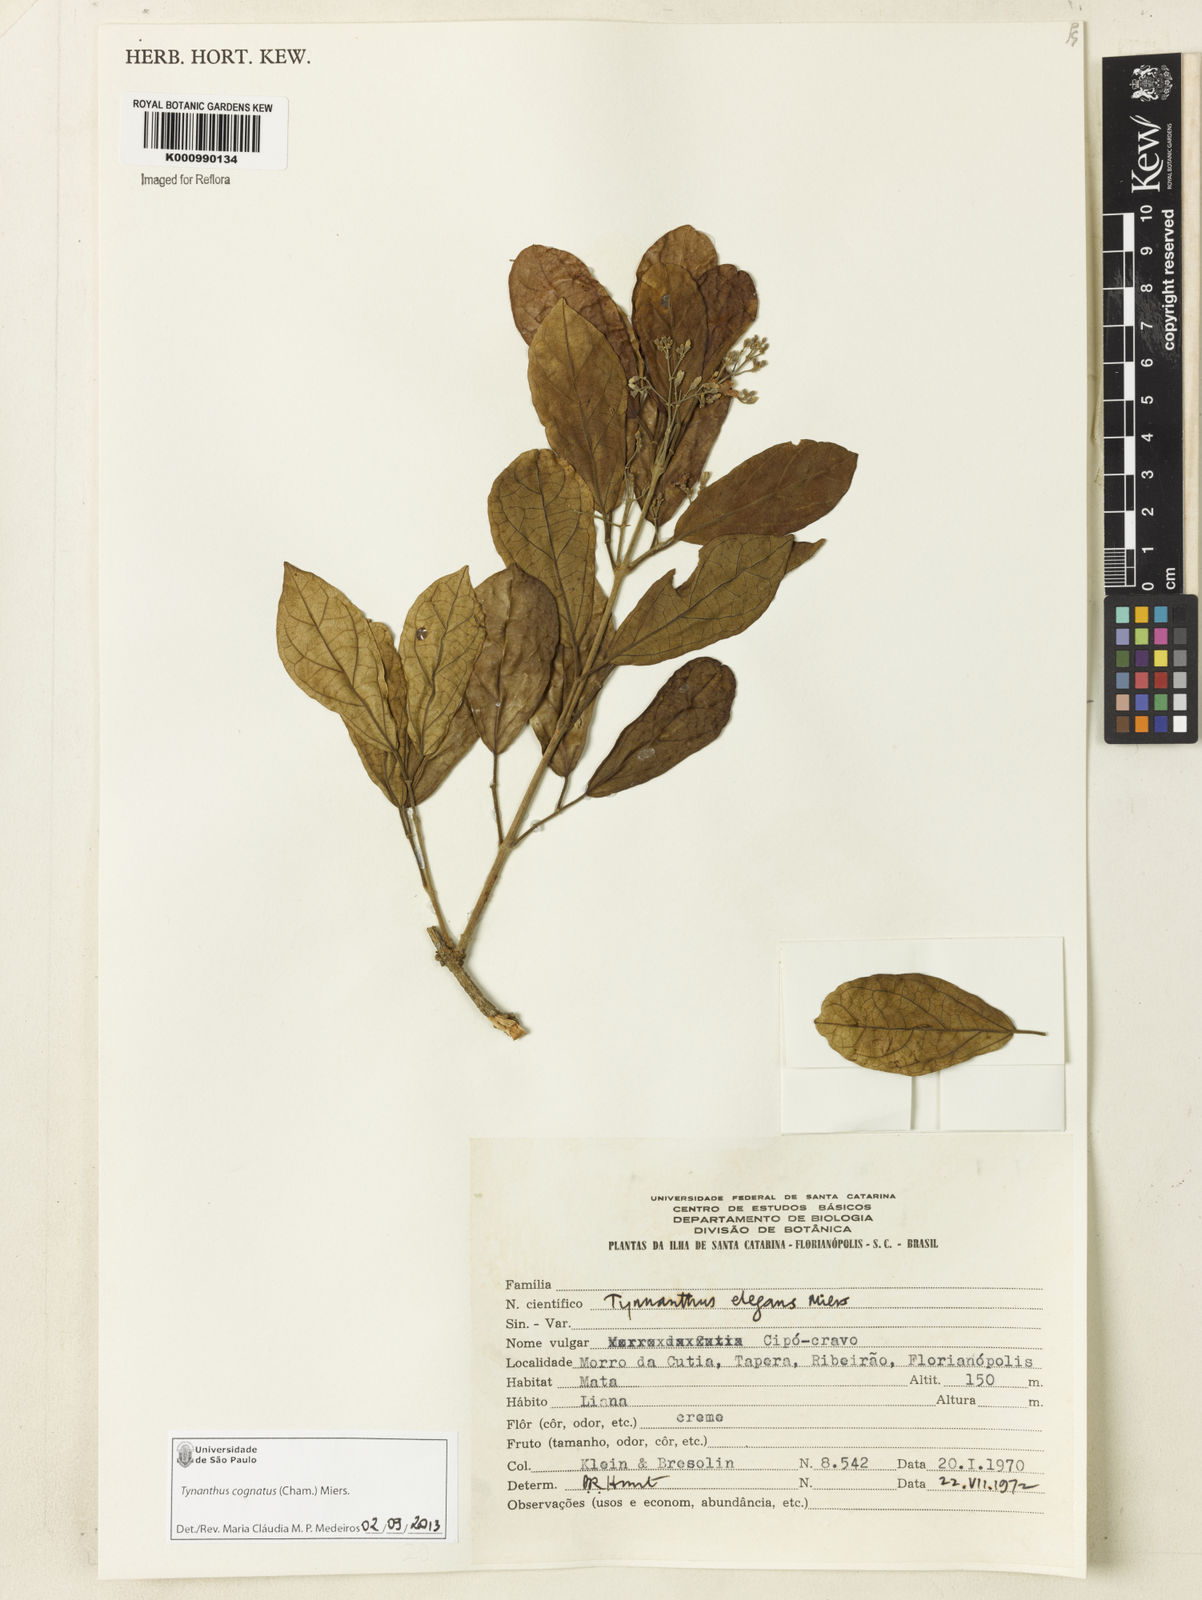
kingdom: Plantae
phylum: Tracheophyta
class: Magnoliopsida
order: Lamiales
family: Bignoniaceae
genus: Tynanthus
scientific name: Tynanthus cognatus
